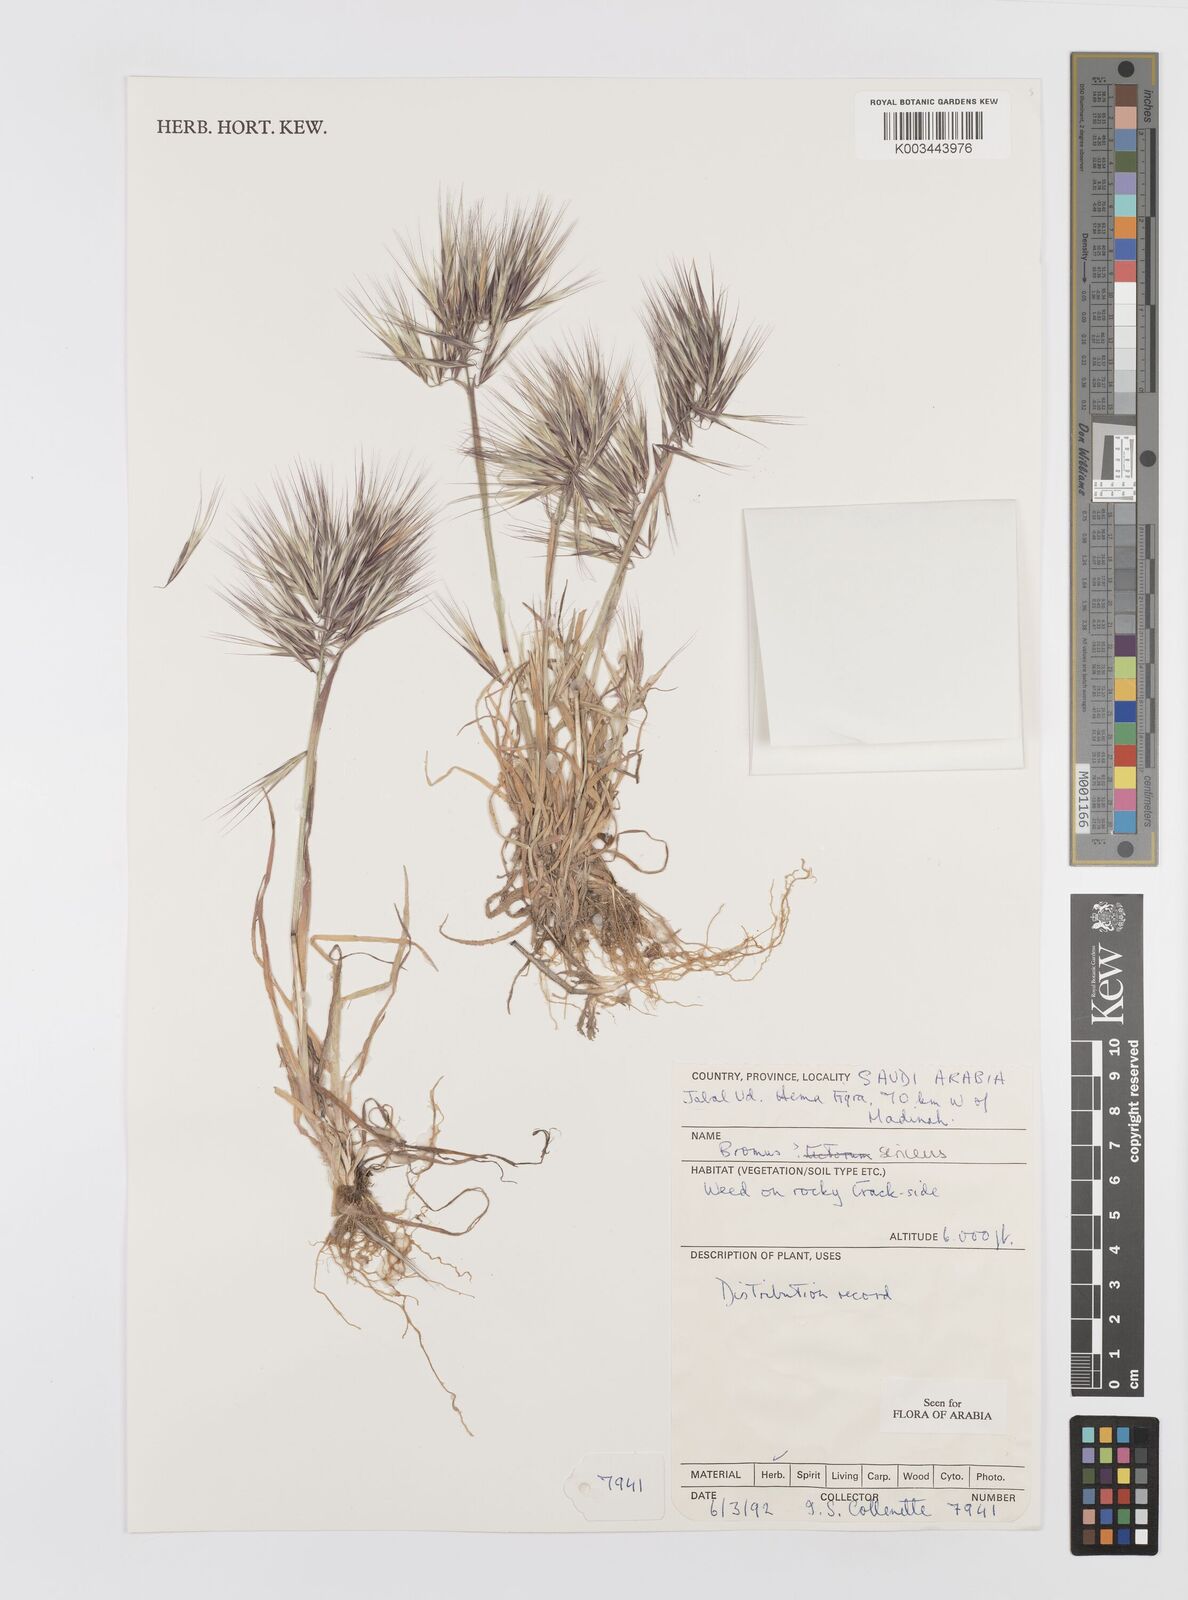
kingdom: Plantae
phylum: Tracheophyta
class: Liliopsida
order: Poales
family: Poaceae
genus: Bromus
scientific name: Bromus moeszii
